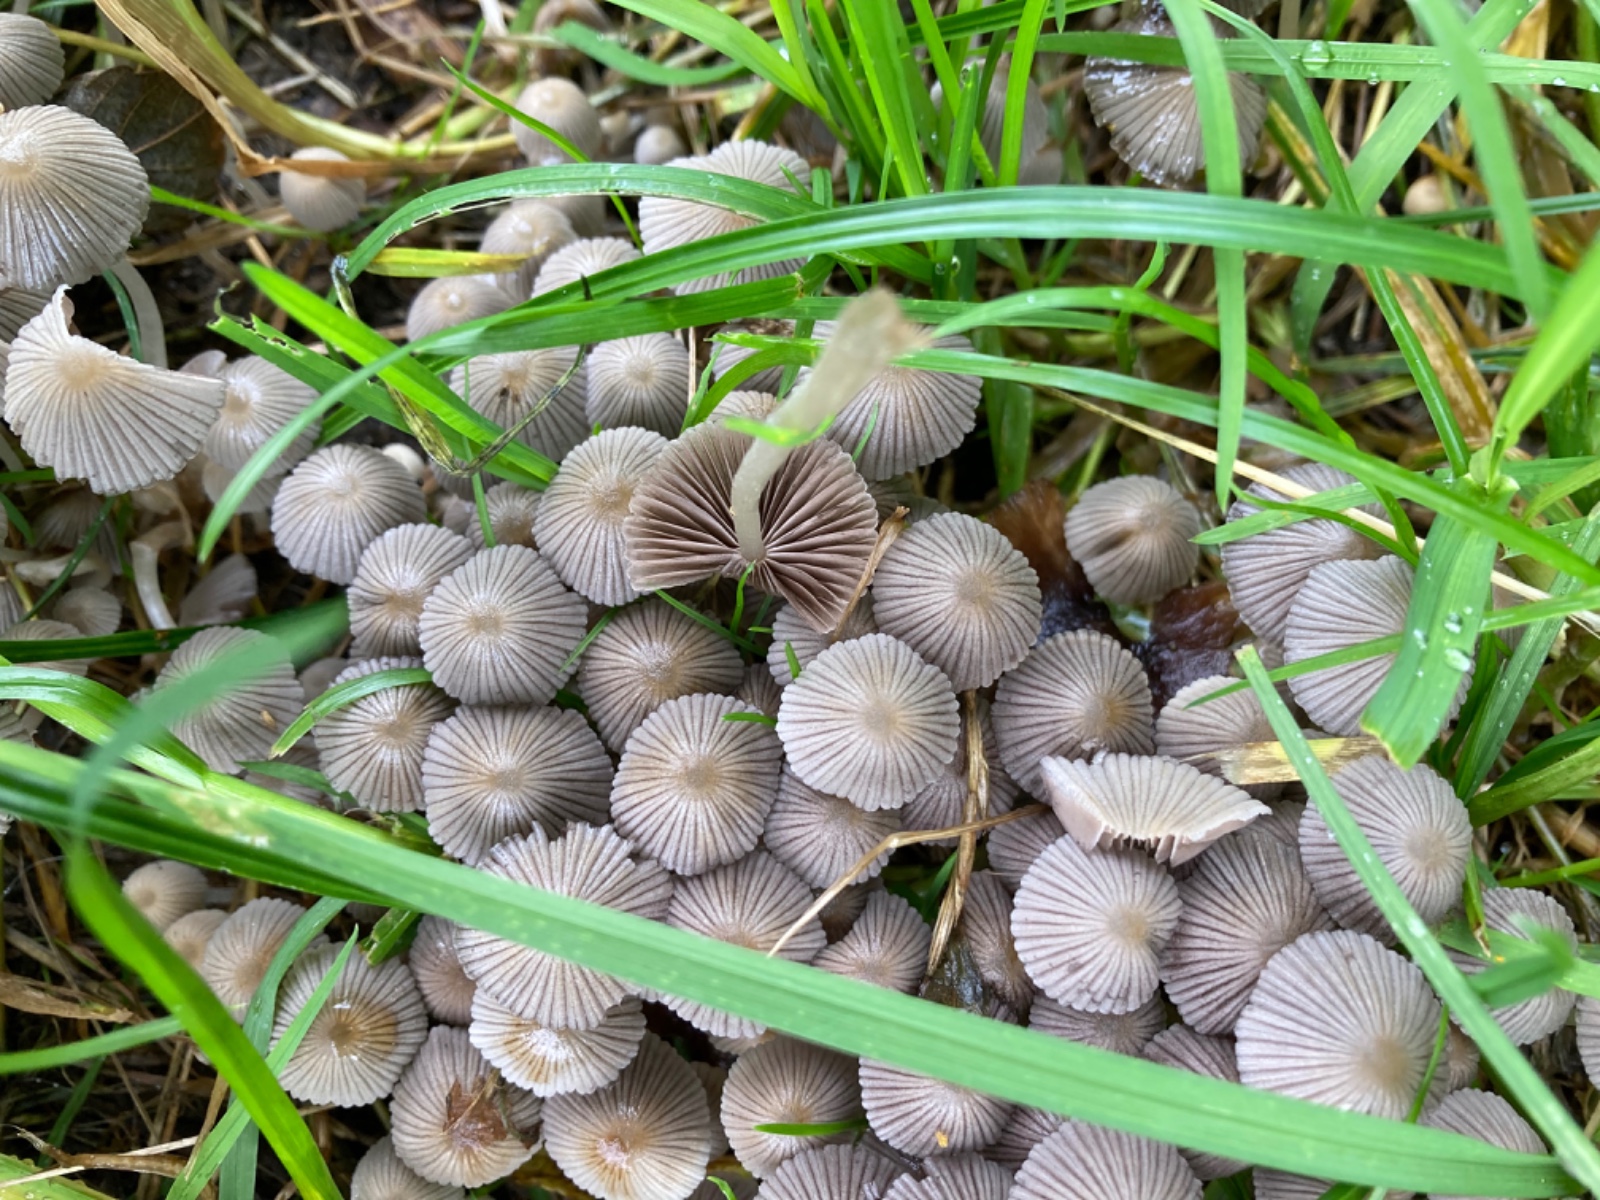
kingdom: Fungi
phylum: Basidiomycota
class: Agaricomycetes
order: Agaricales
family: Psathyrellaceae
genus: Coprinellus
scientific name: Coprinellus disseminatus
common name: bredsået blækhat
